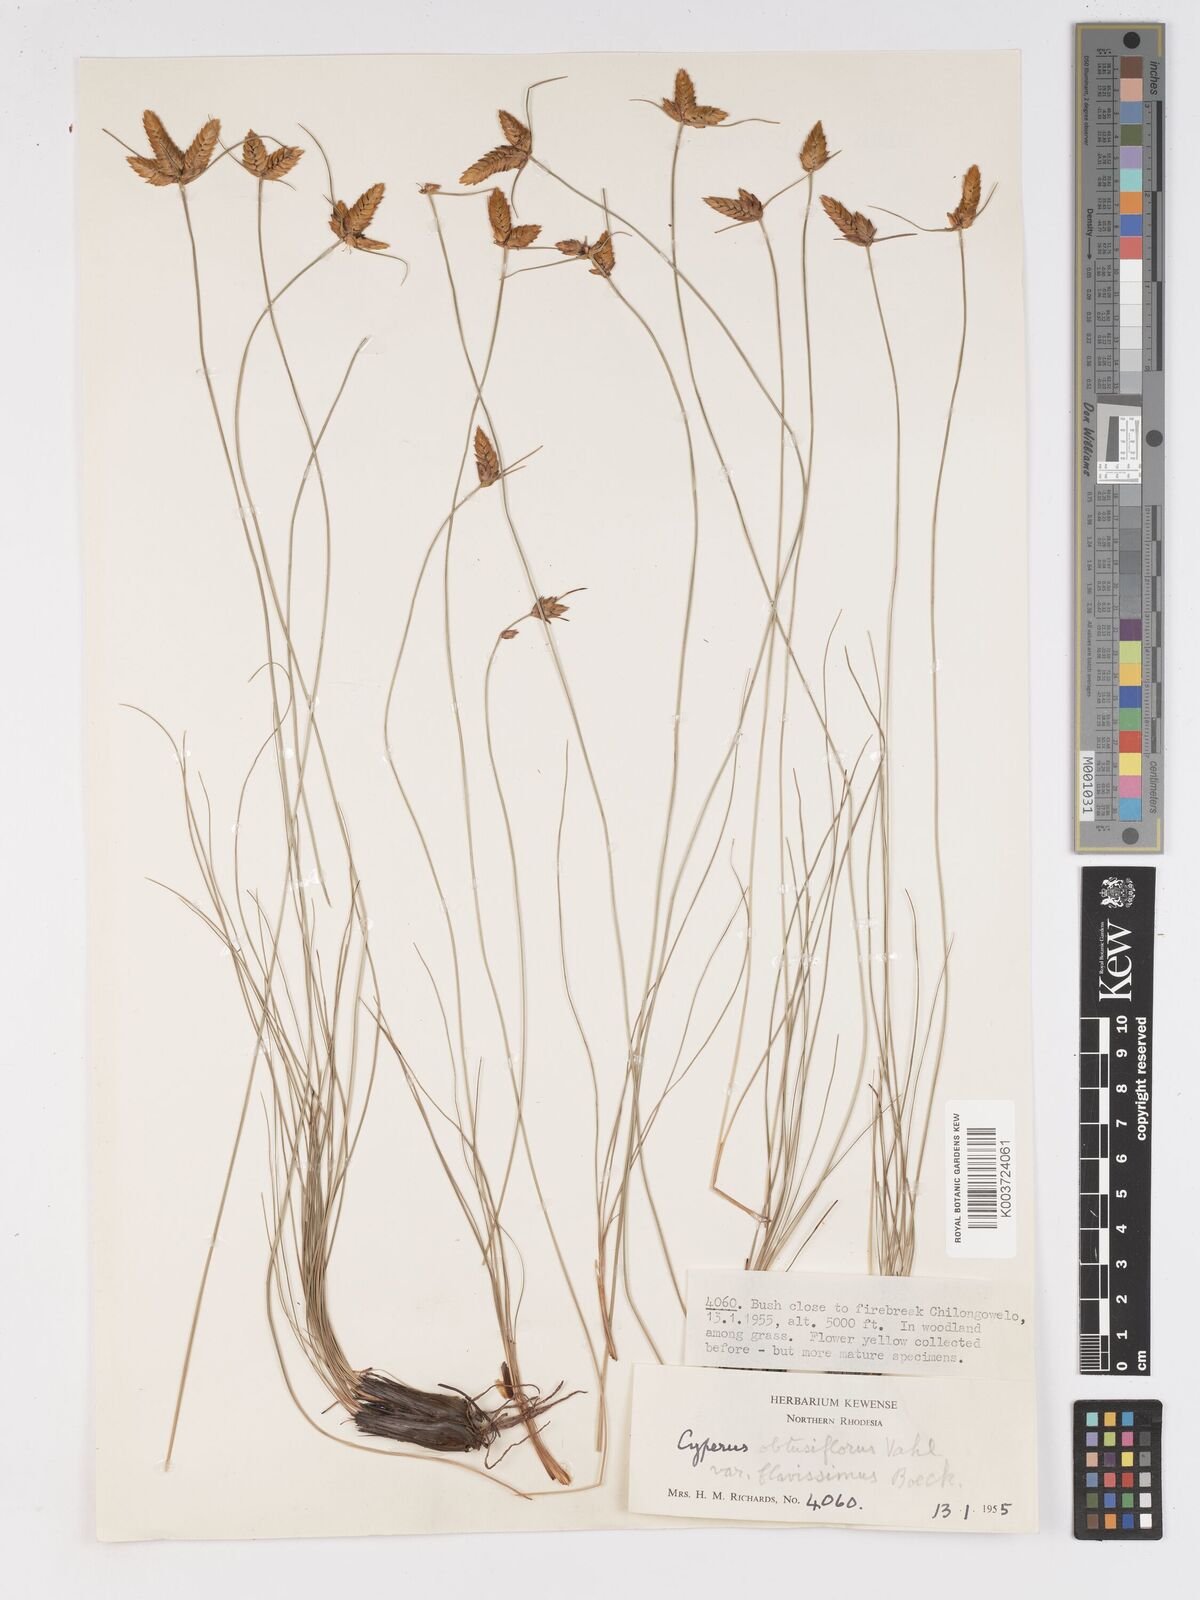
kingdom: Plantae
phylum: Tracheophyta
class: Liliopsida
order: Poales
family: Cyperaceae
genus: Cyperus
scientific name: Cyperus niveus
